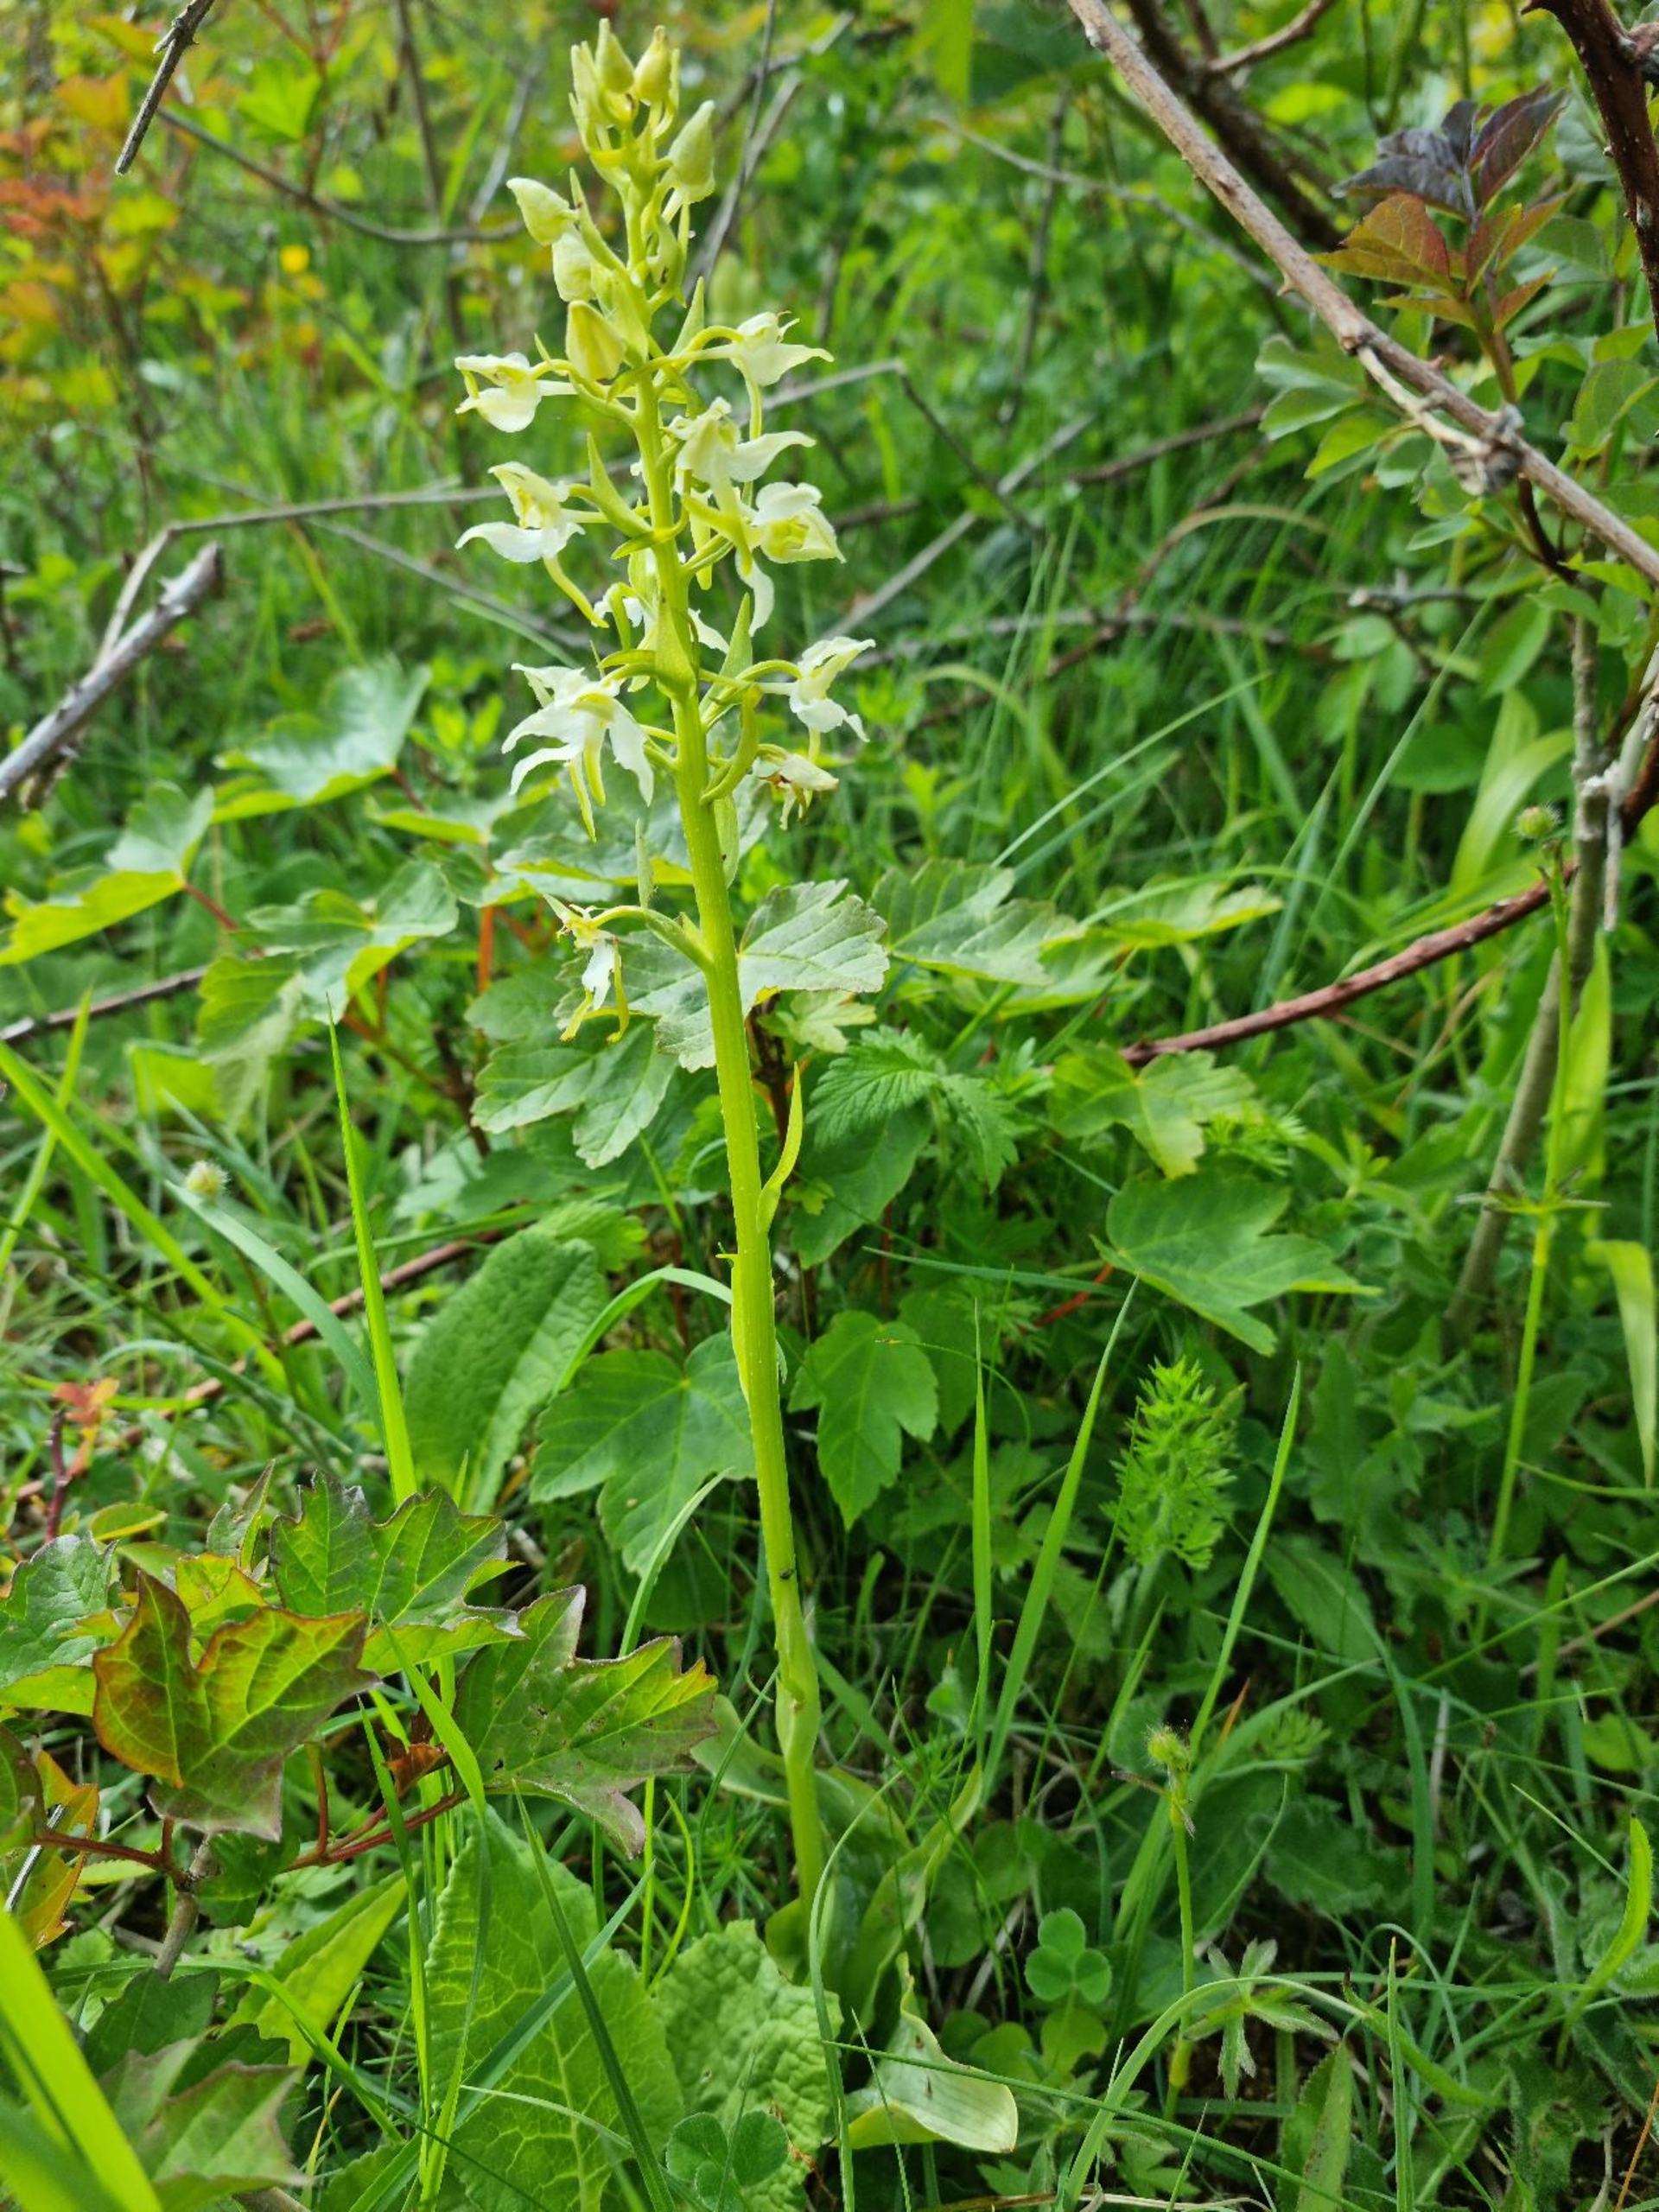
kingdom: Plantae
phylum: Tracheophyta
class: Liliopsida
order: Asparagales
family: Orchidaceae
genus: Platanthera
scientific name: Platanthera chlorantha
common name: Skov-gøgelilje
